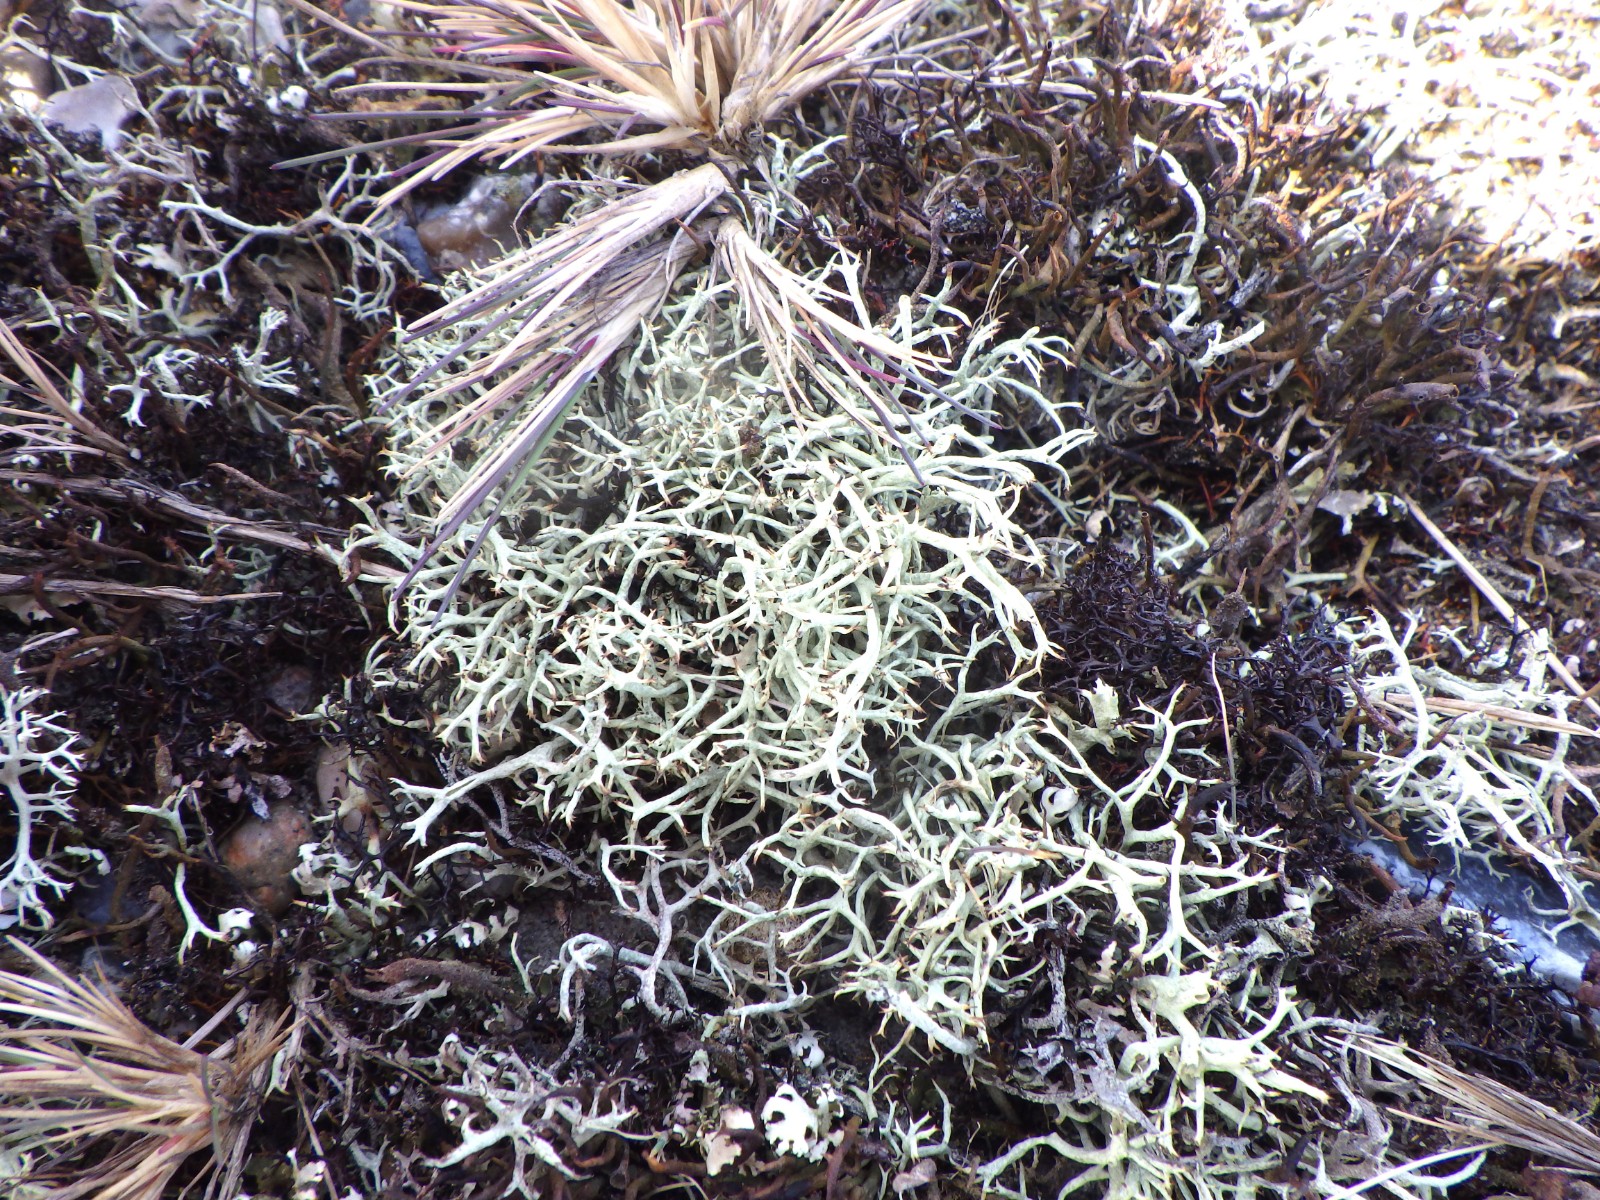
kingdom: Fungi
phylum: Ascomycota
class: Lecanoromycetes
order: Lecanorales
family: Cladoniaceae
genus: Cladonia
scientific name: Cladonia zopfii
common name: klit-bægerlav
